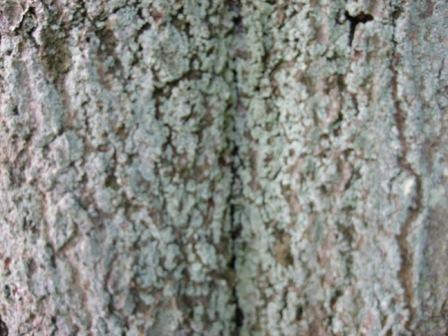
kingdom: Fungi
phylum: Ascomycota
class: Lecanoromycetes
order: Lecanorales
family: Stereocaulaceae
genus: Lepraria
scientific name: Lepraria incana
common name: almindelig støvlav
